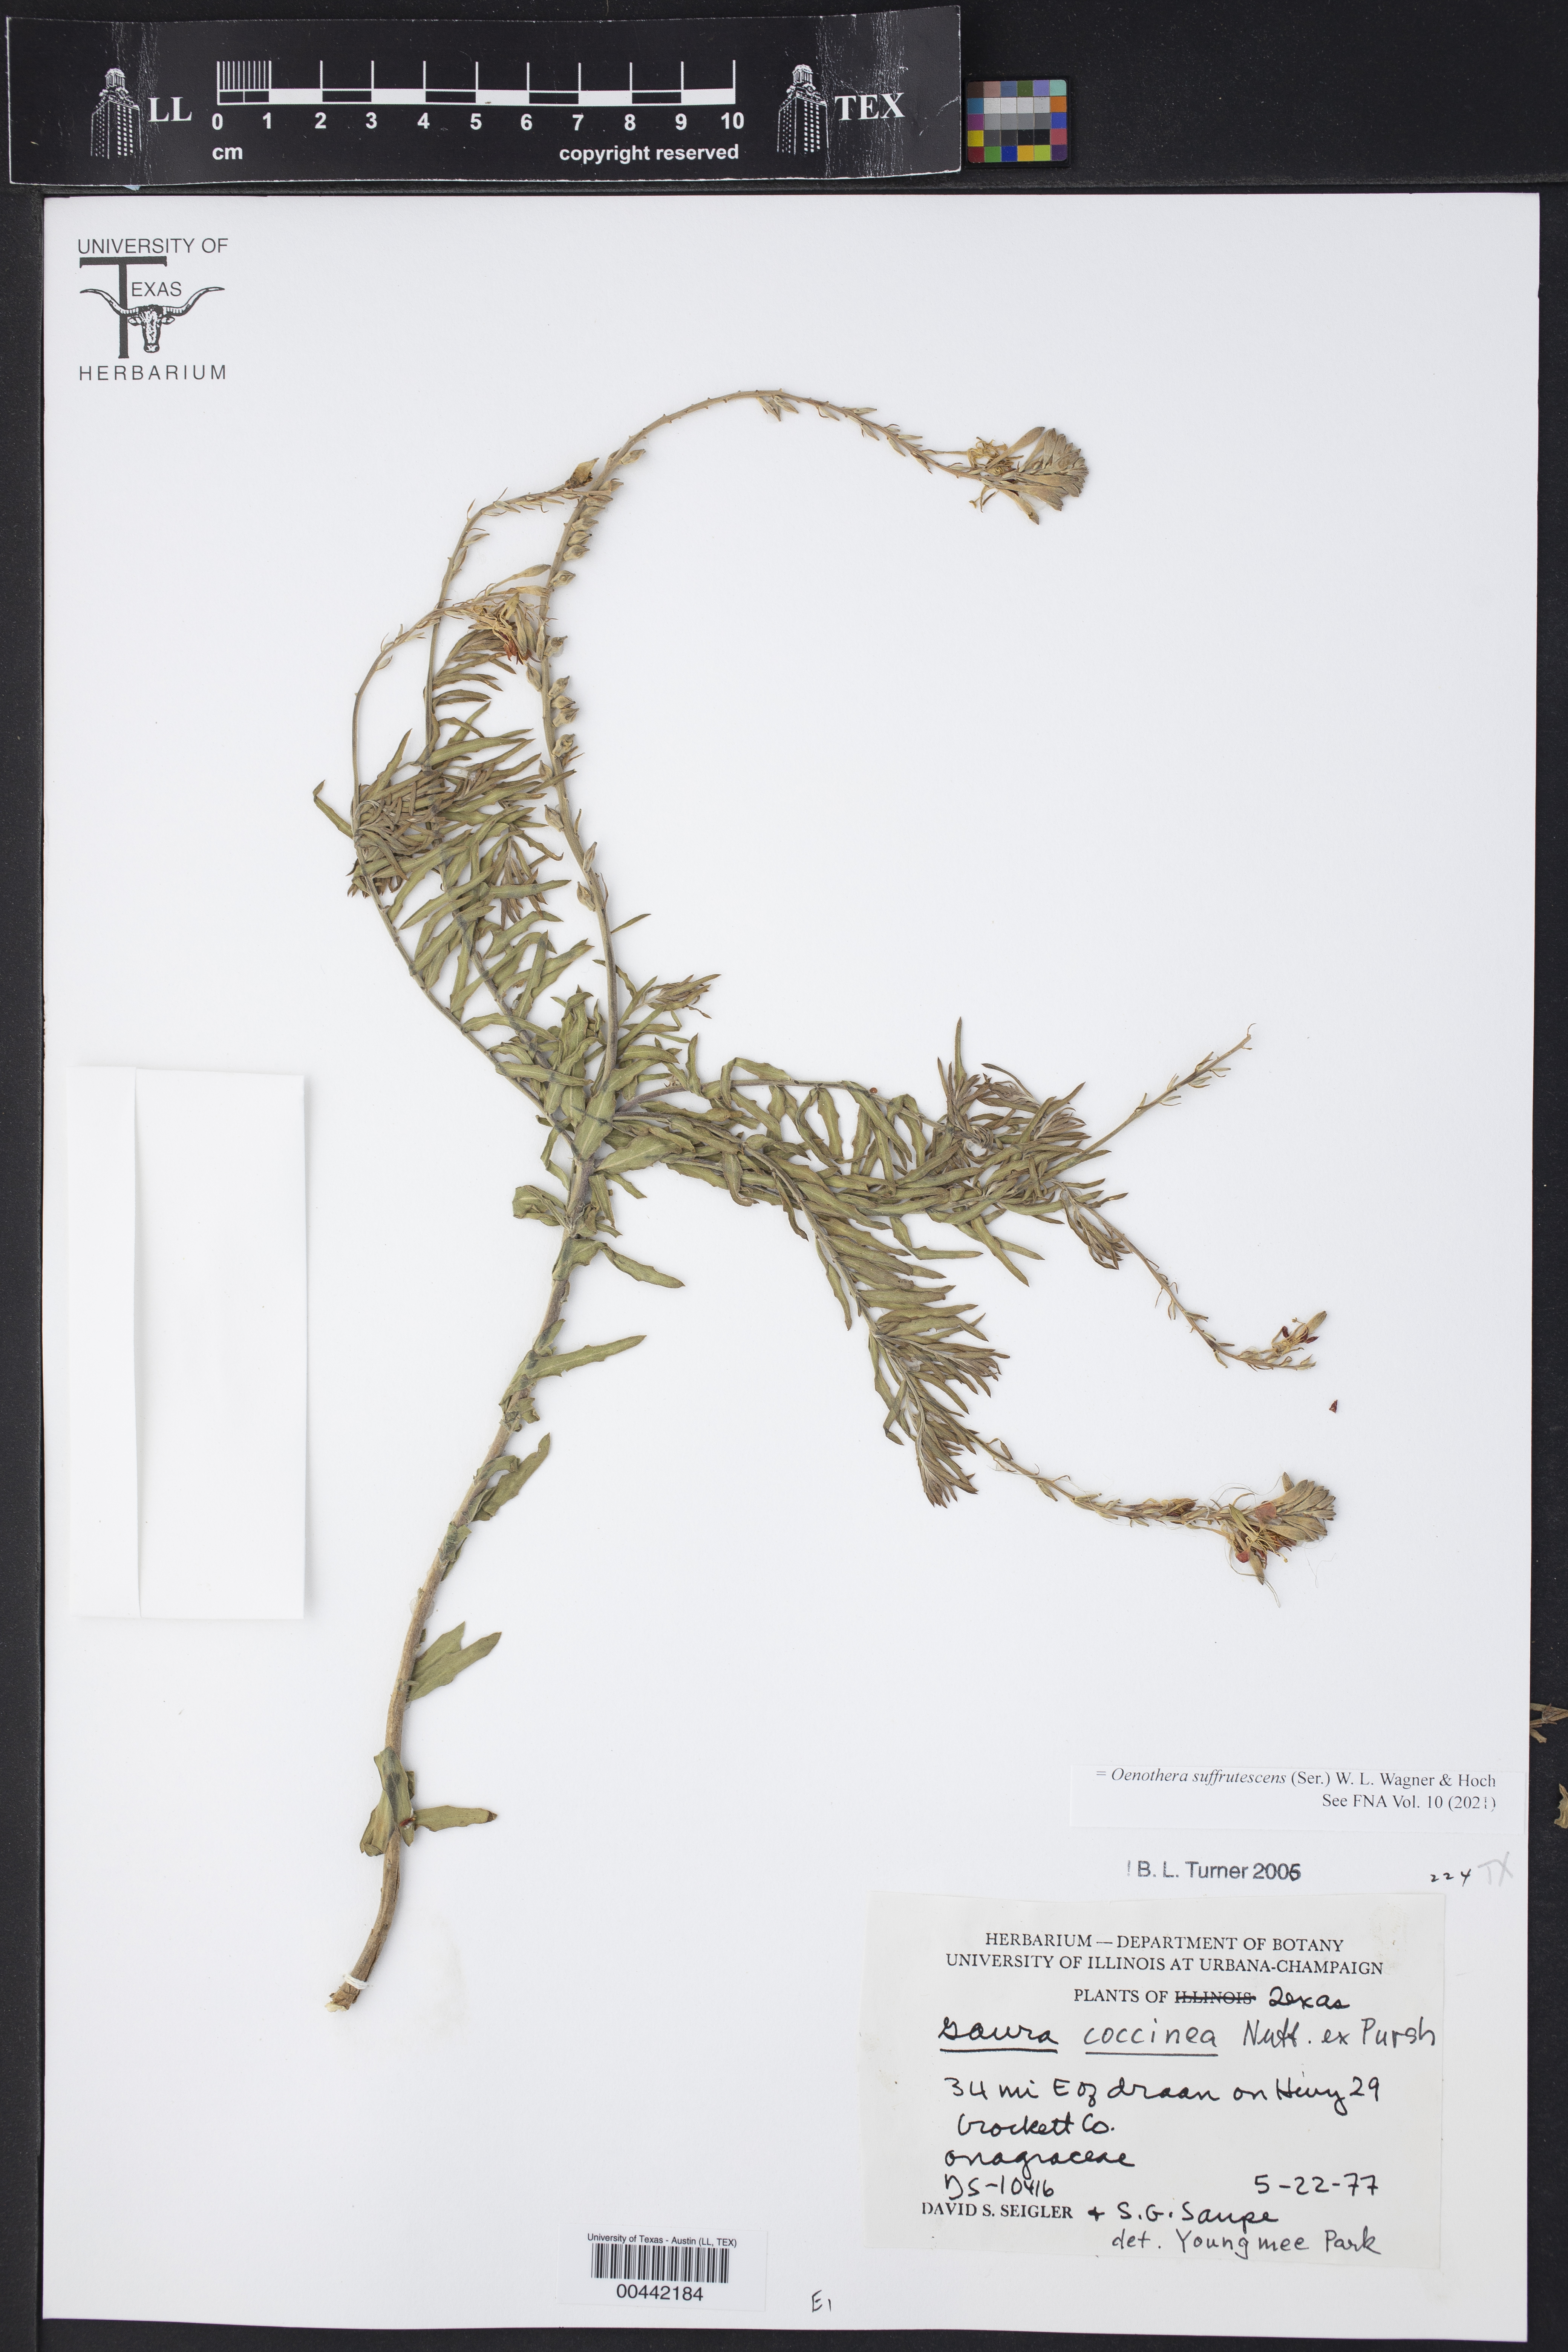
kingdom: Plantae
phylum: Tracheophyta
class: Magnoliopsida
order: Myrtales
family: Onagraceae
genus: Oenothera
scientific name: Oenothera suffrutescens
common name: Scarlet beeblossom
